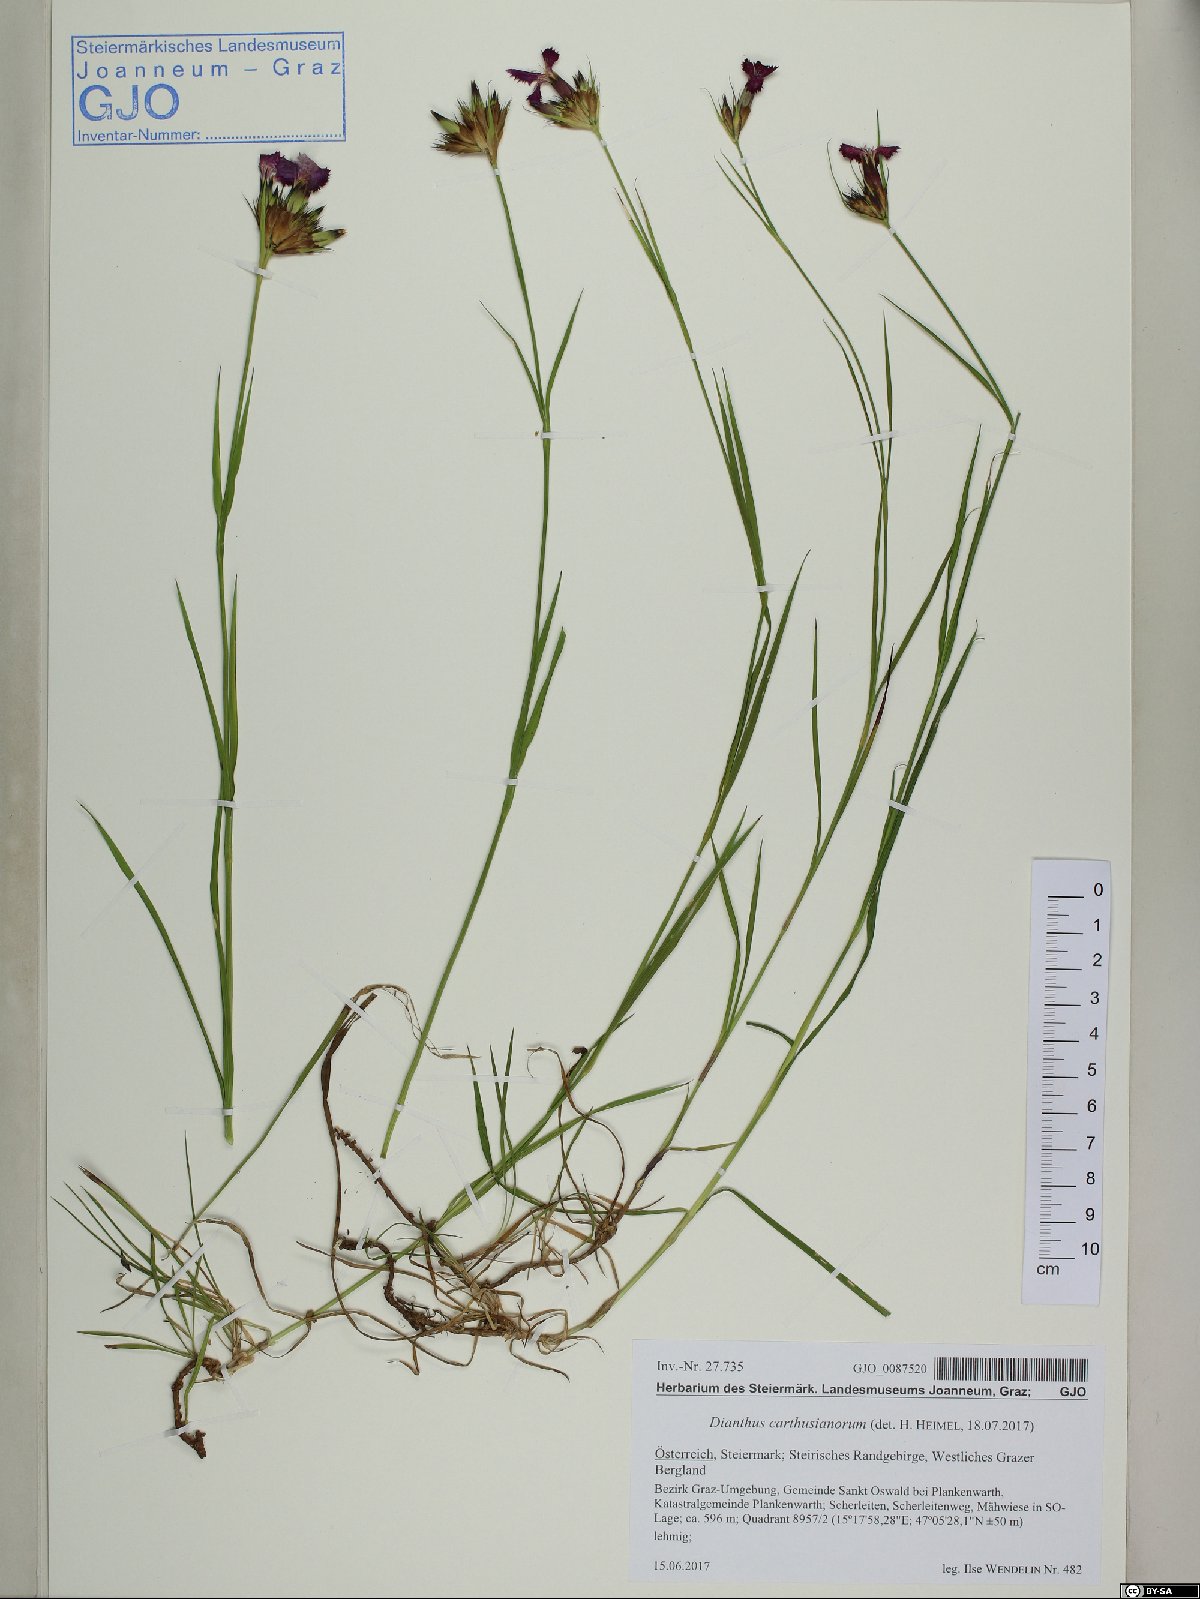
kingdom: Plantae
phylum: Tracheophyta
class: Magnoliopsida
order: Caryophyllales
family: Caryophyllaceae
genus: Dianthus
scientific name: Dianthus carthusianorum
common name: Carthusian pink
